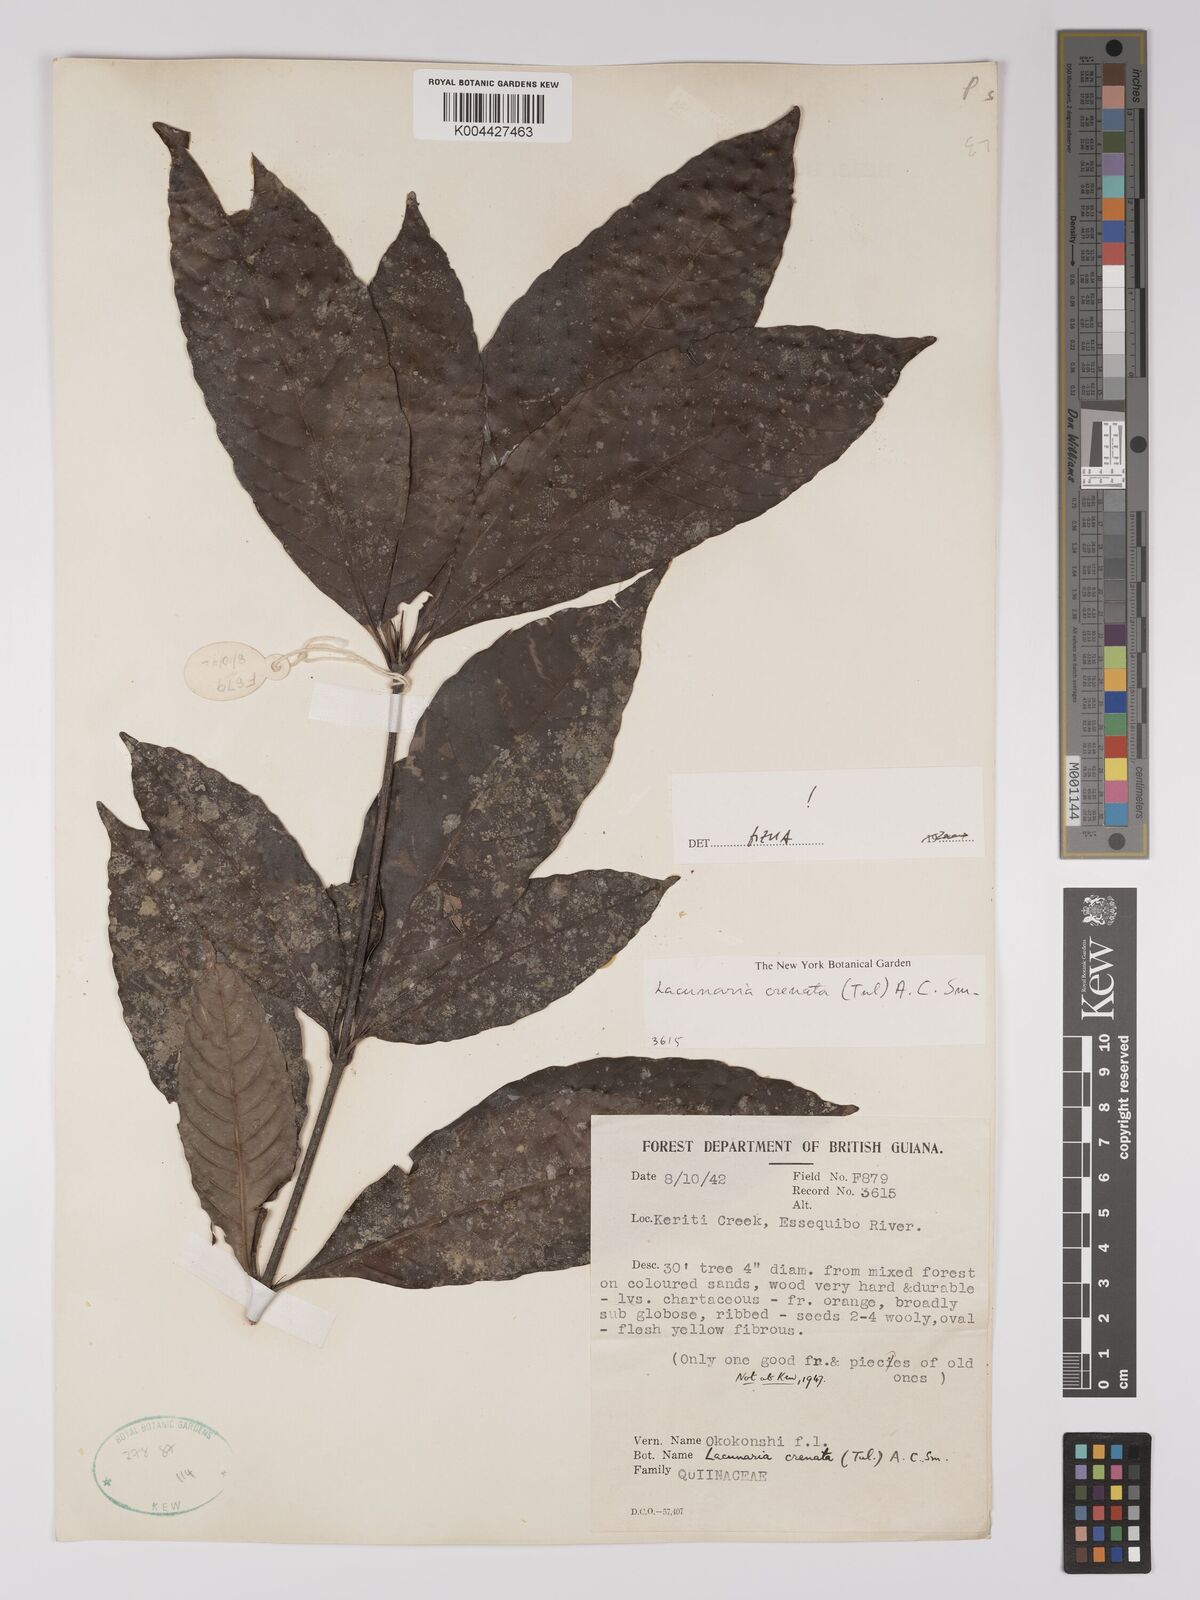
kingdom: Plantae
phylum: Tracheophyta
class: Magnoliopsida
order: Malpighiales
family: Quiinaceae
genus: Lacunaria
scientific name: Lacunaria crenata
